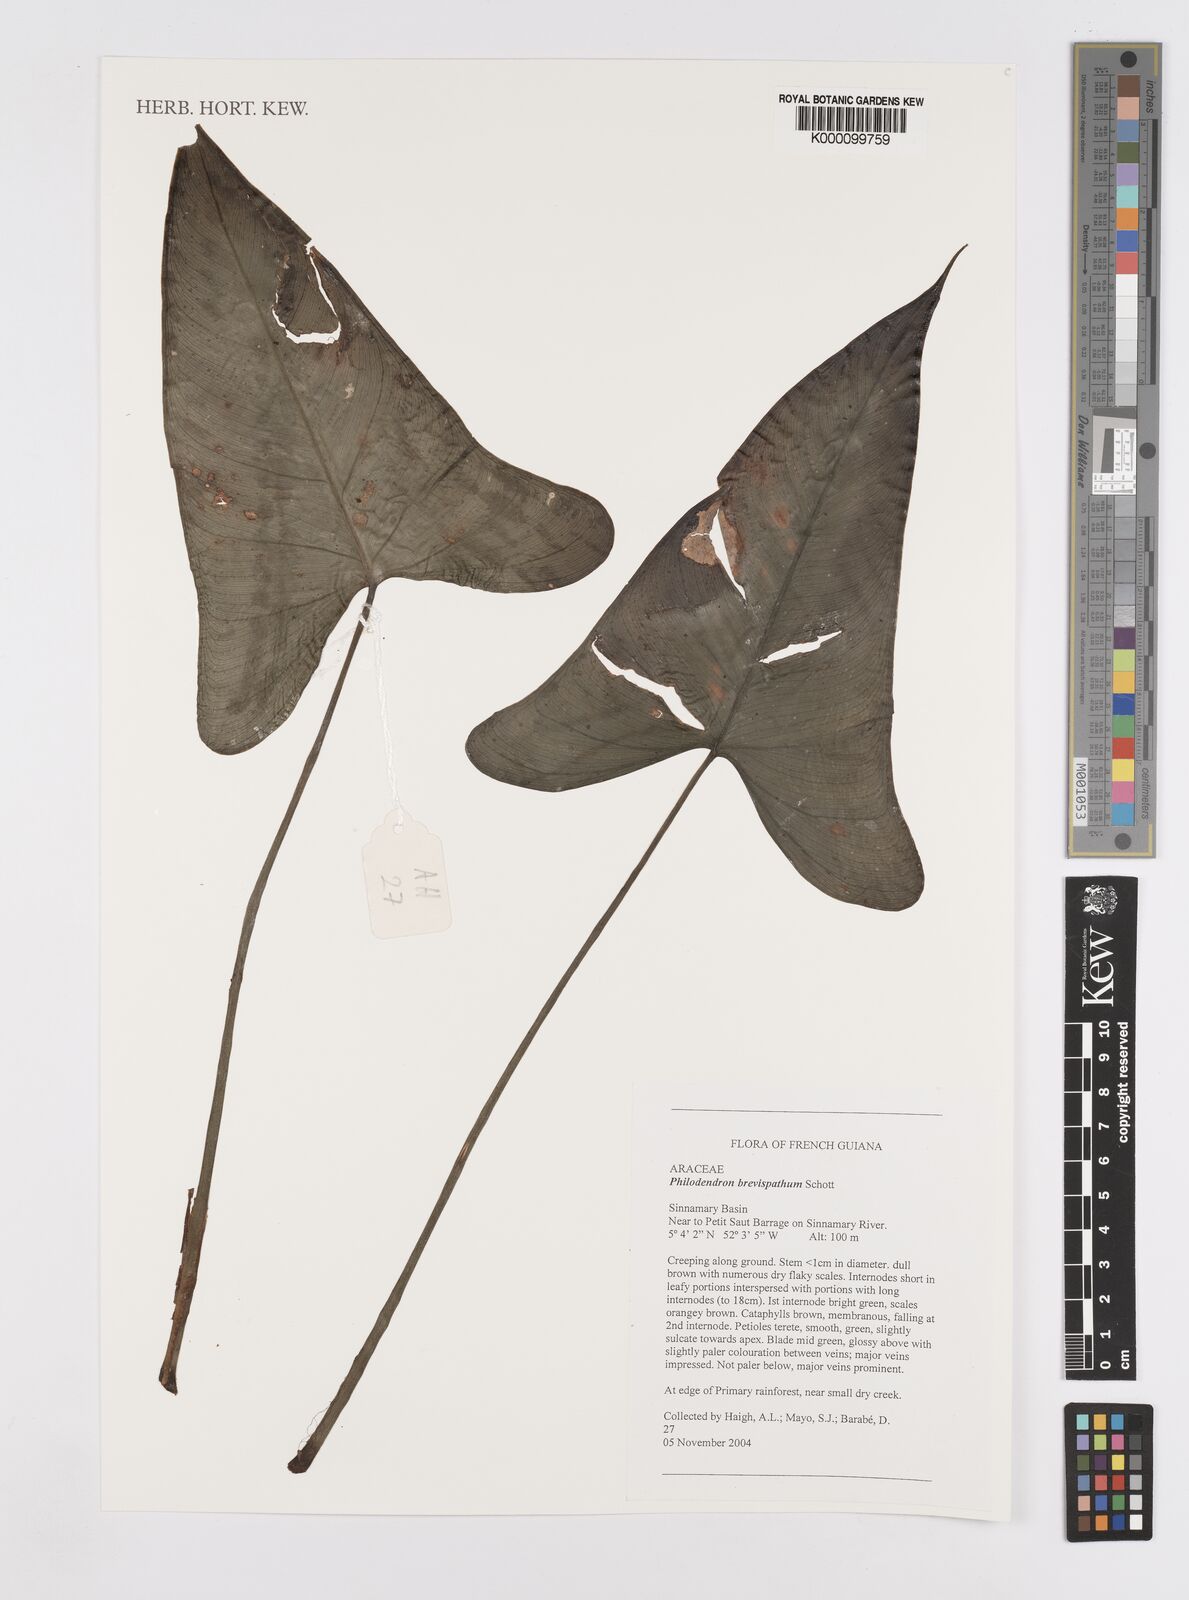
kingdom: Plantae
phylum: Tracheophyta
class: Liliopsida
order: Alismatales
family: Araceae
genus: Philodendron
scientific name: Philodendron brevispathum
